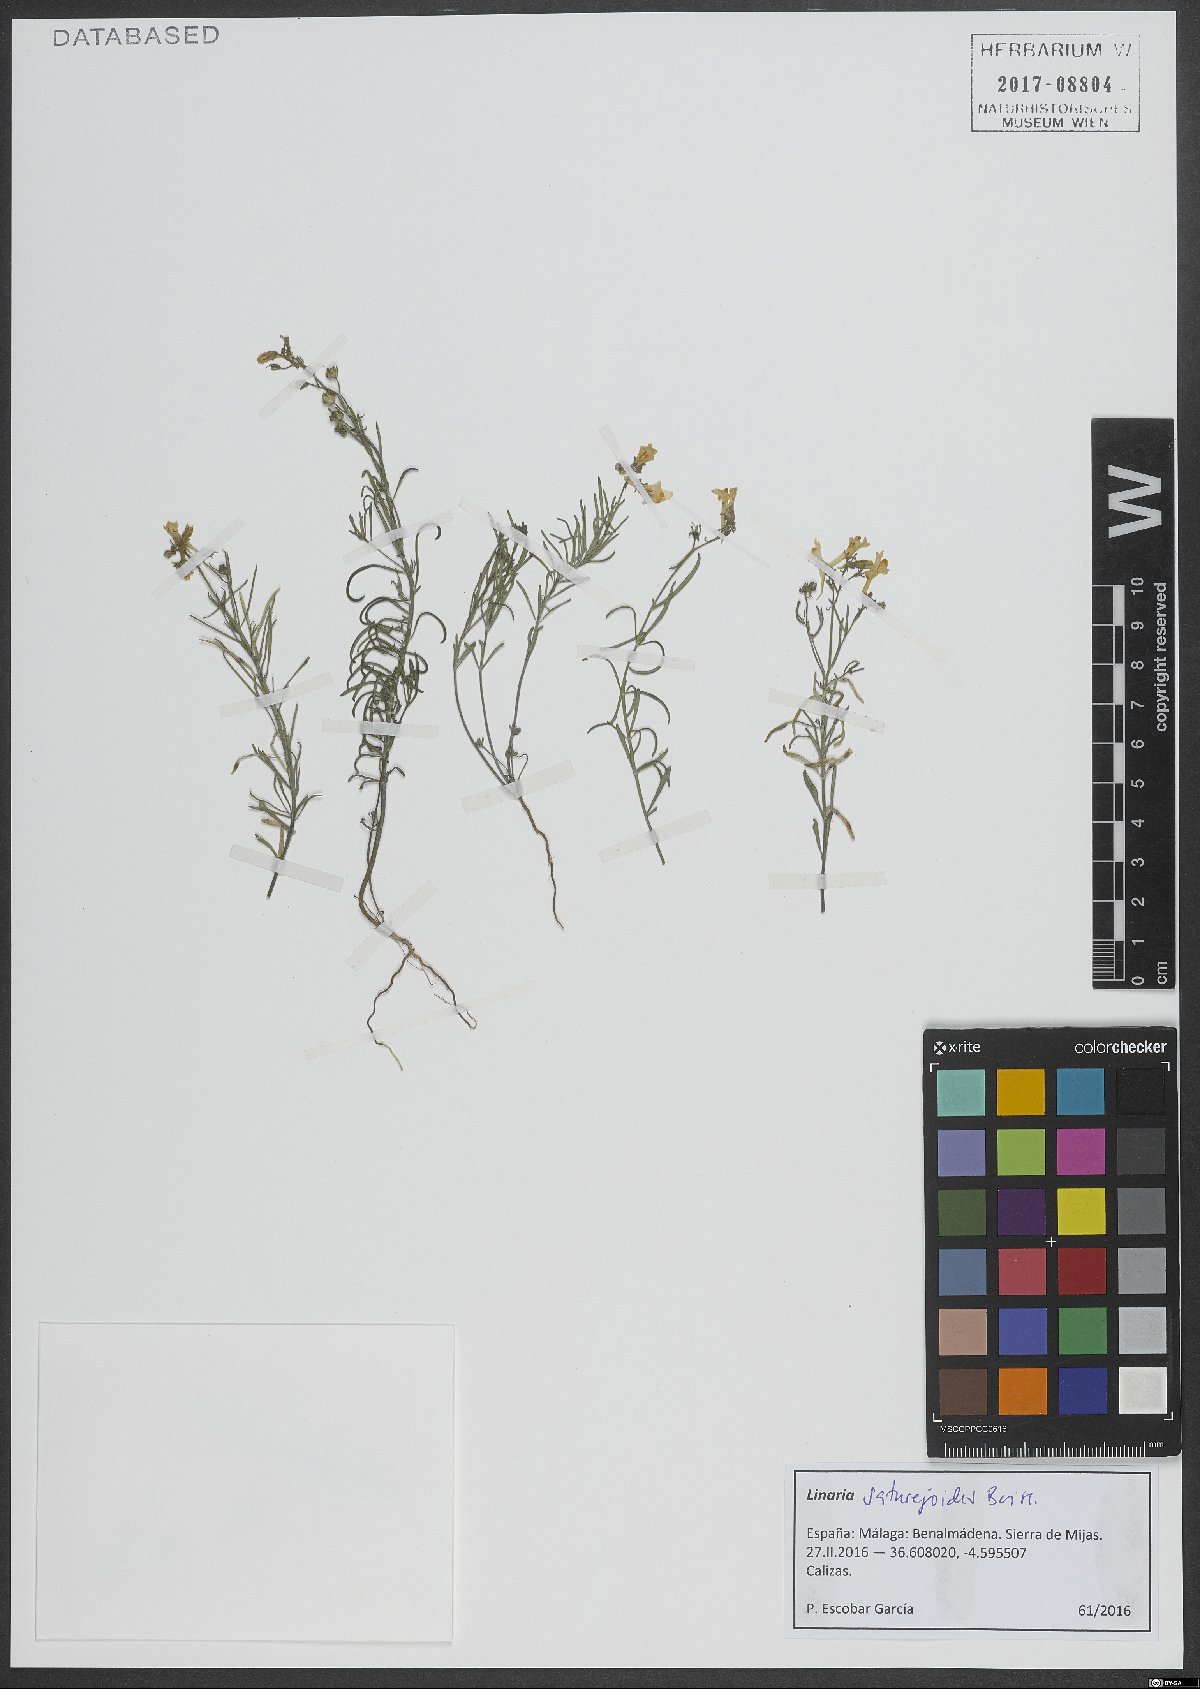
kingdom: Plantae
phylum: Tracheophyta
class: Magnoliopsida
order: Lamiales
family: Plantaginaceae
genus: Linaria
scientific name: Linaria saturejoides
